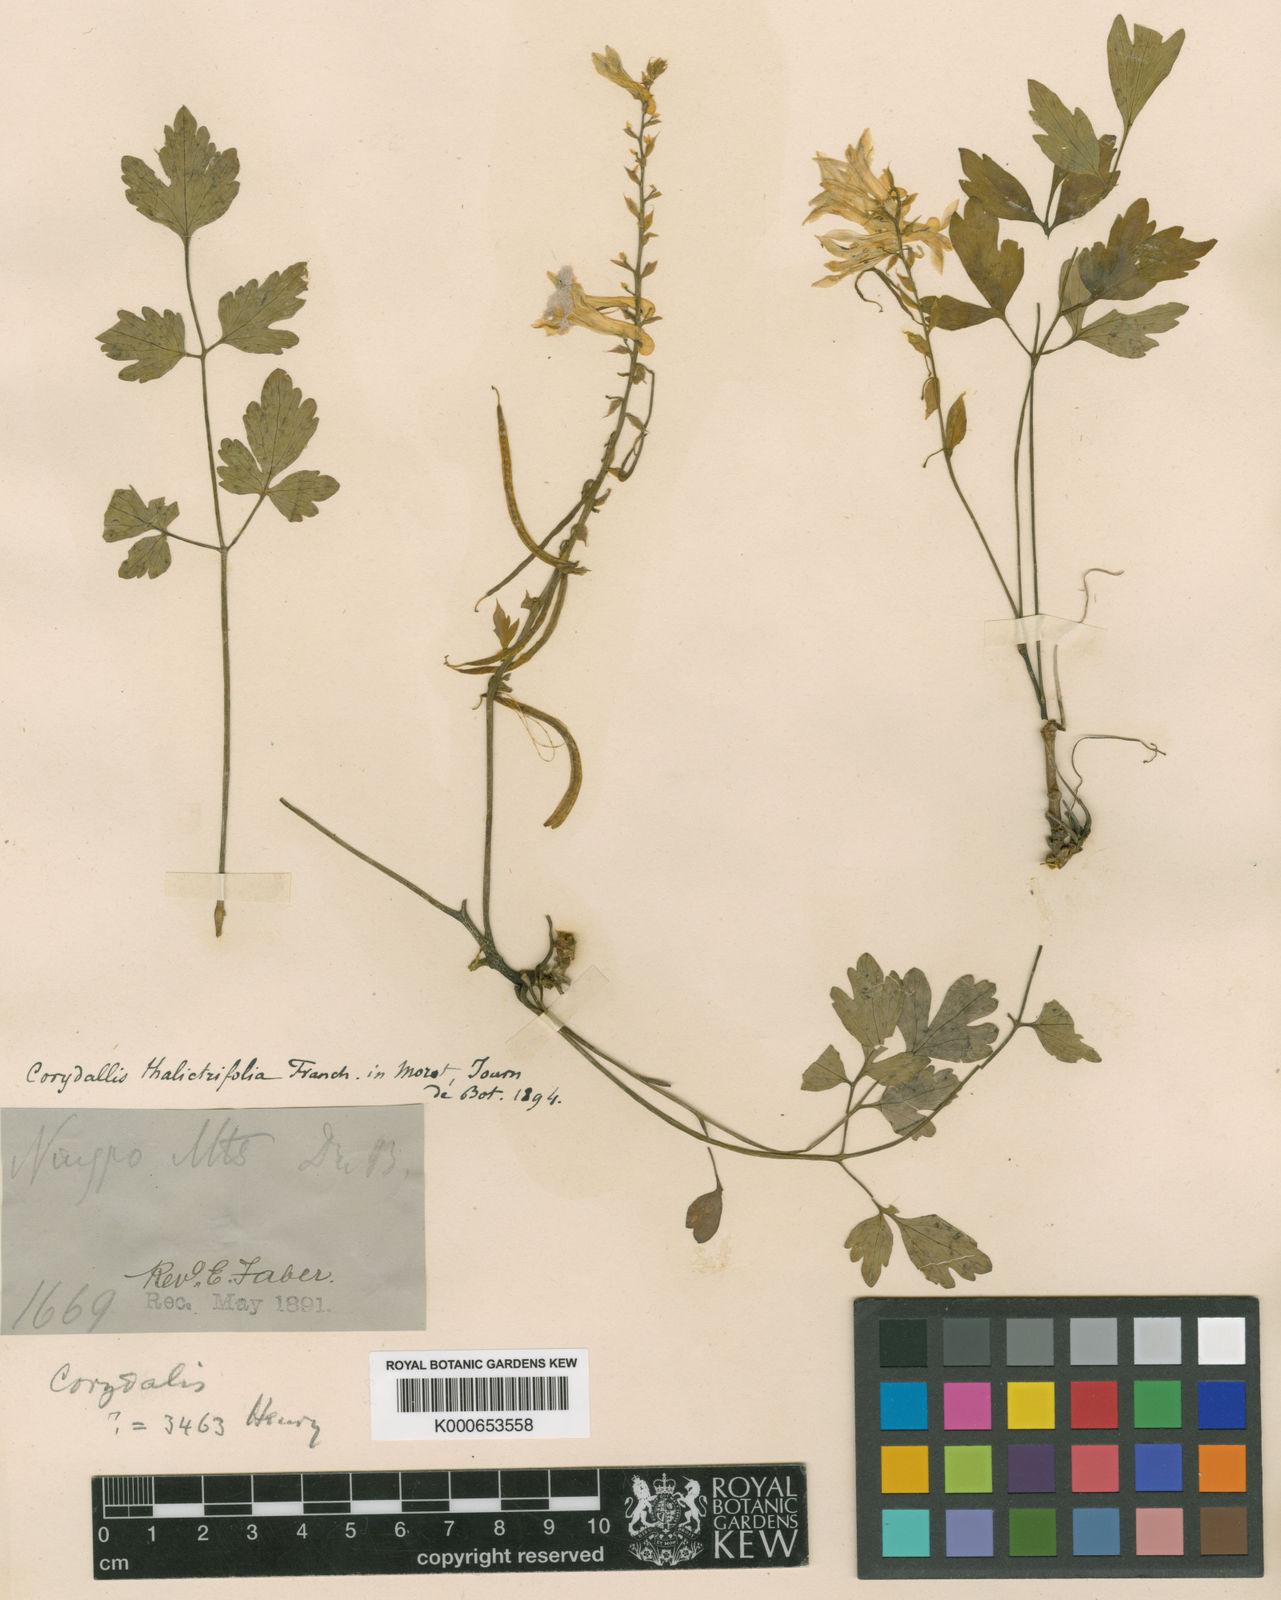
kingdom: Plantae
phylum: Tracheophyta
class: Magnoliopsida
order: Ranunculales
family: Papaveraceae
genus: Corydalis
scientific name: Corydalis saxicola
